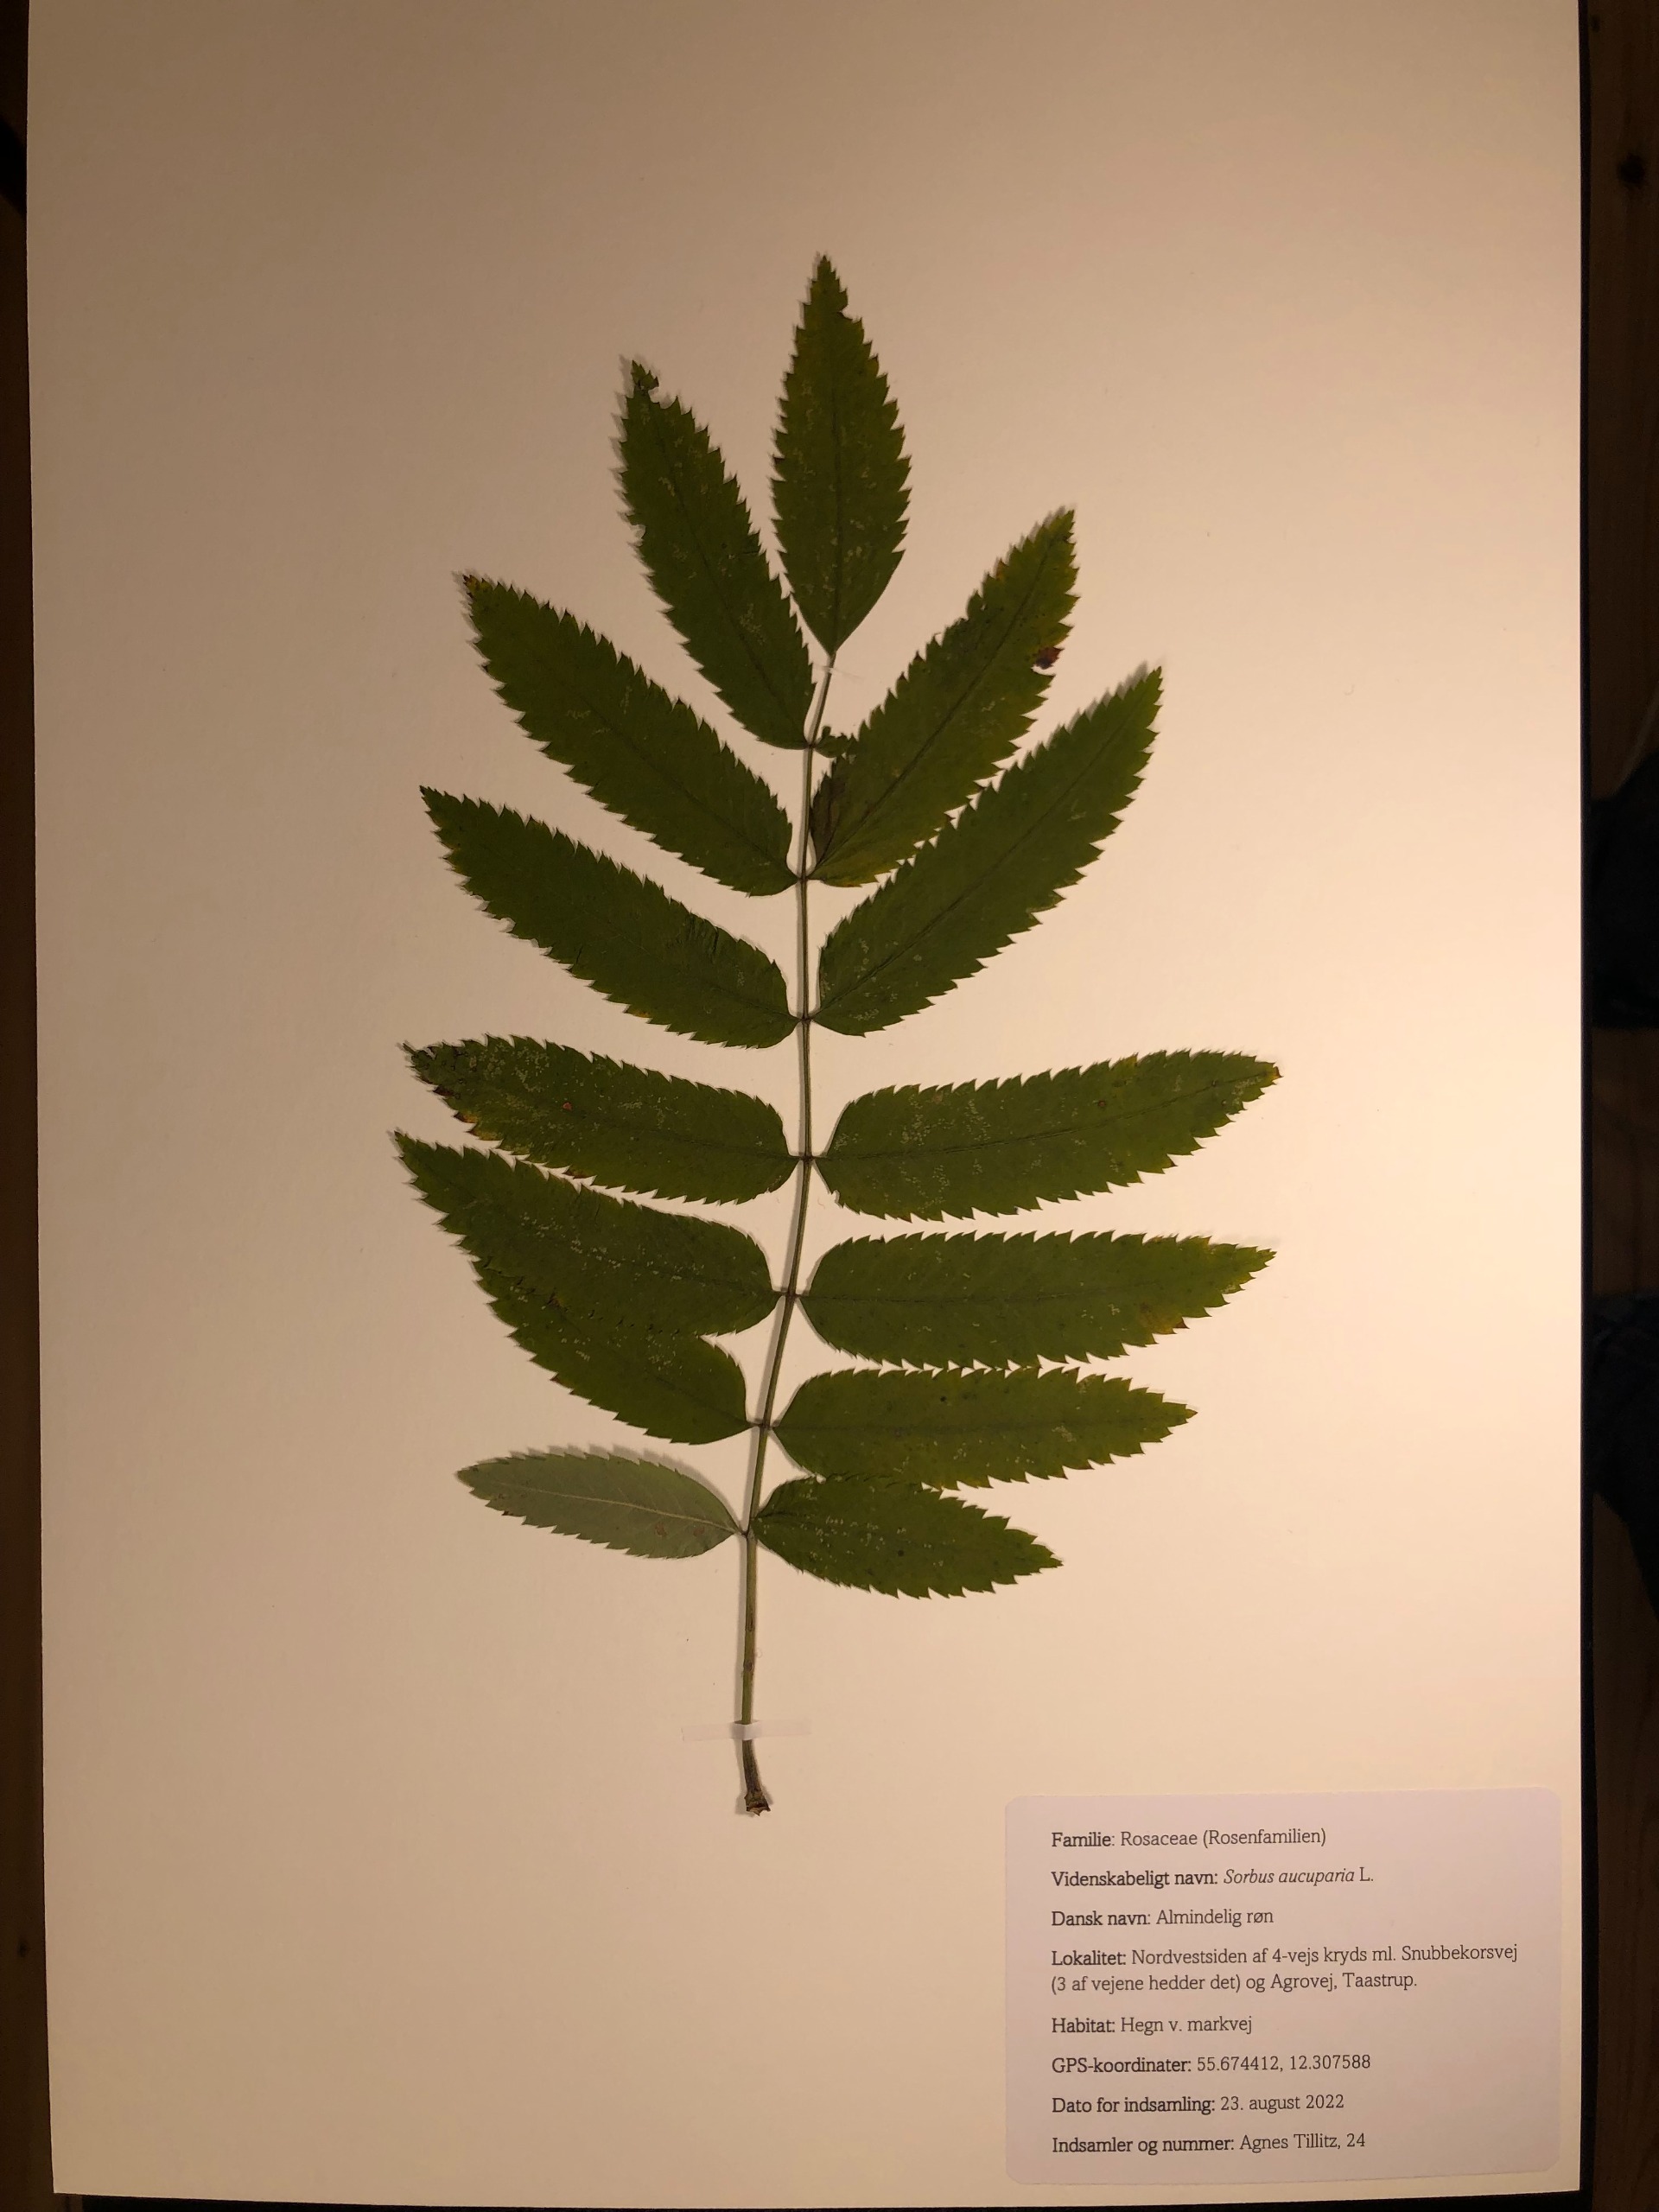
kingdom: Plantae
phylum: Tracheophyta
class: Magnoliopsida
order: Rosales
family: Rosaceae
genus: Sorbus
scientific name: Sorbus aucuparia
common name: Almindelig røn
